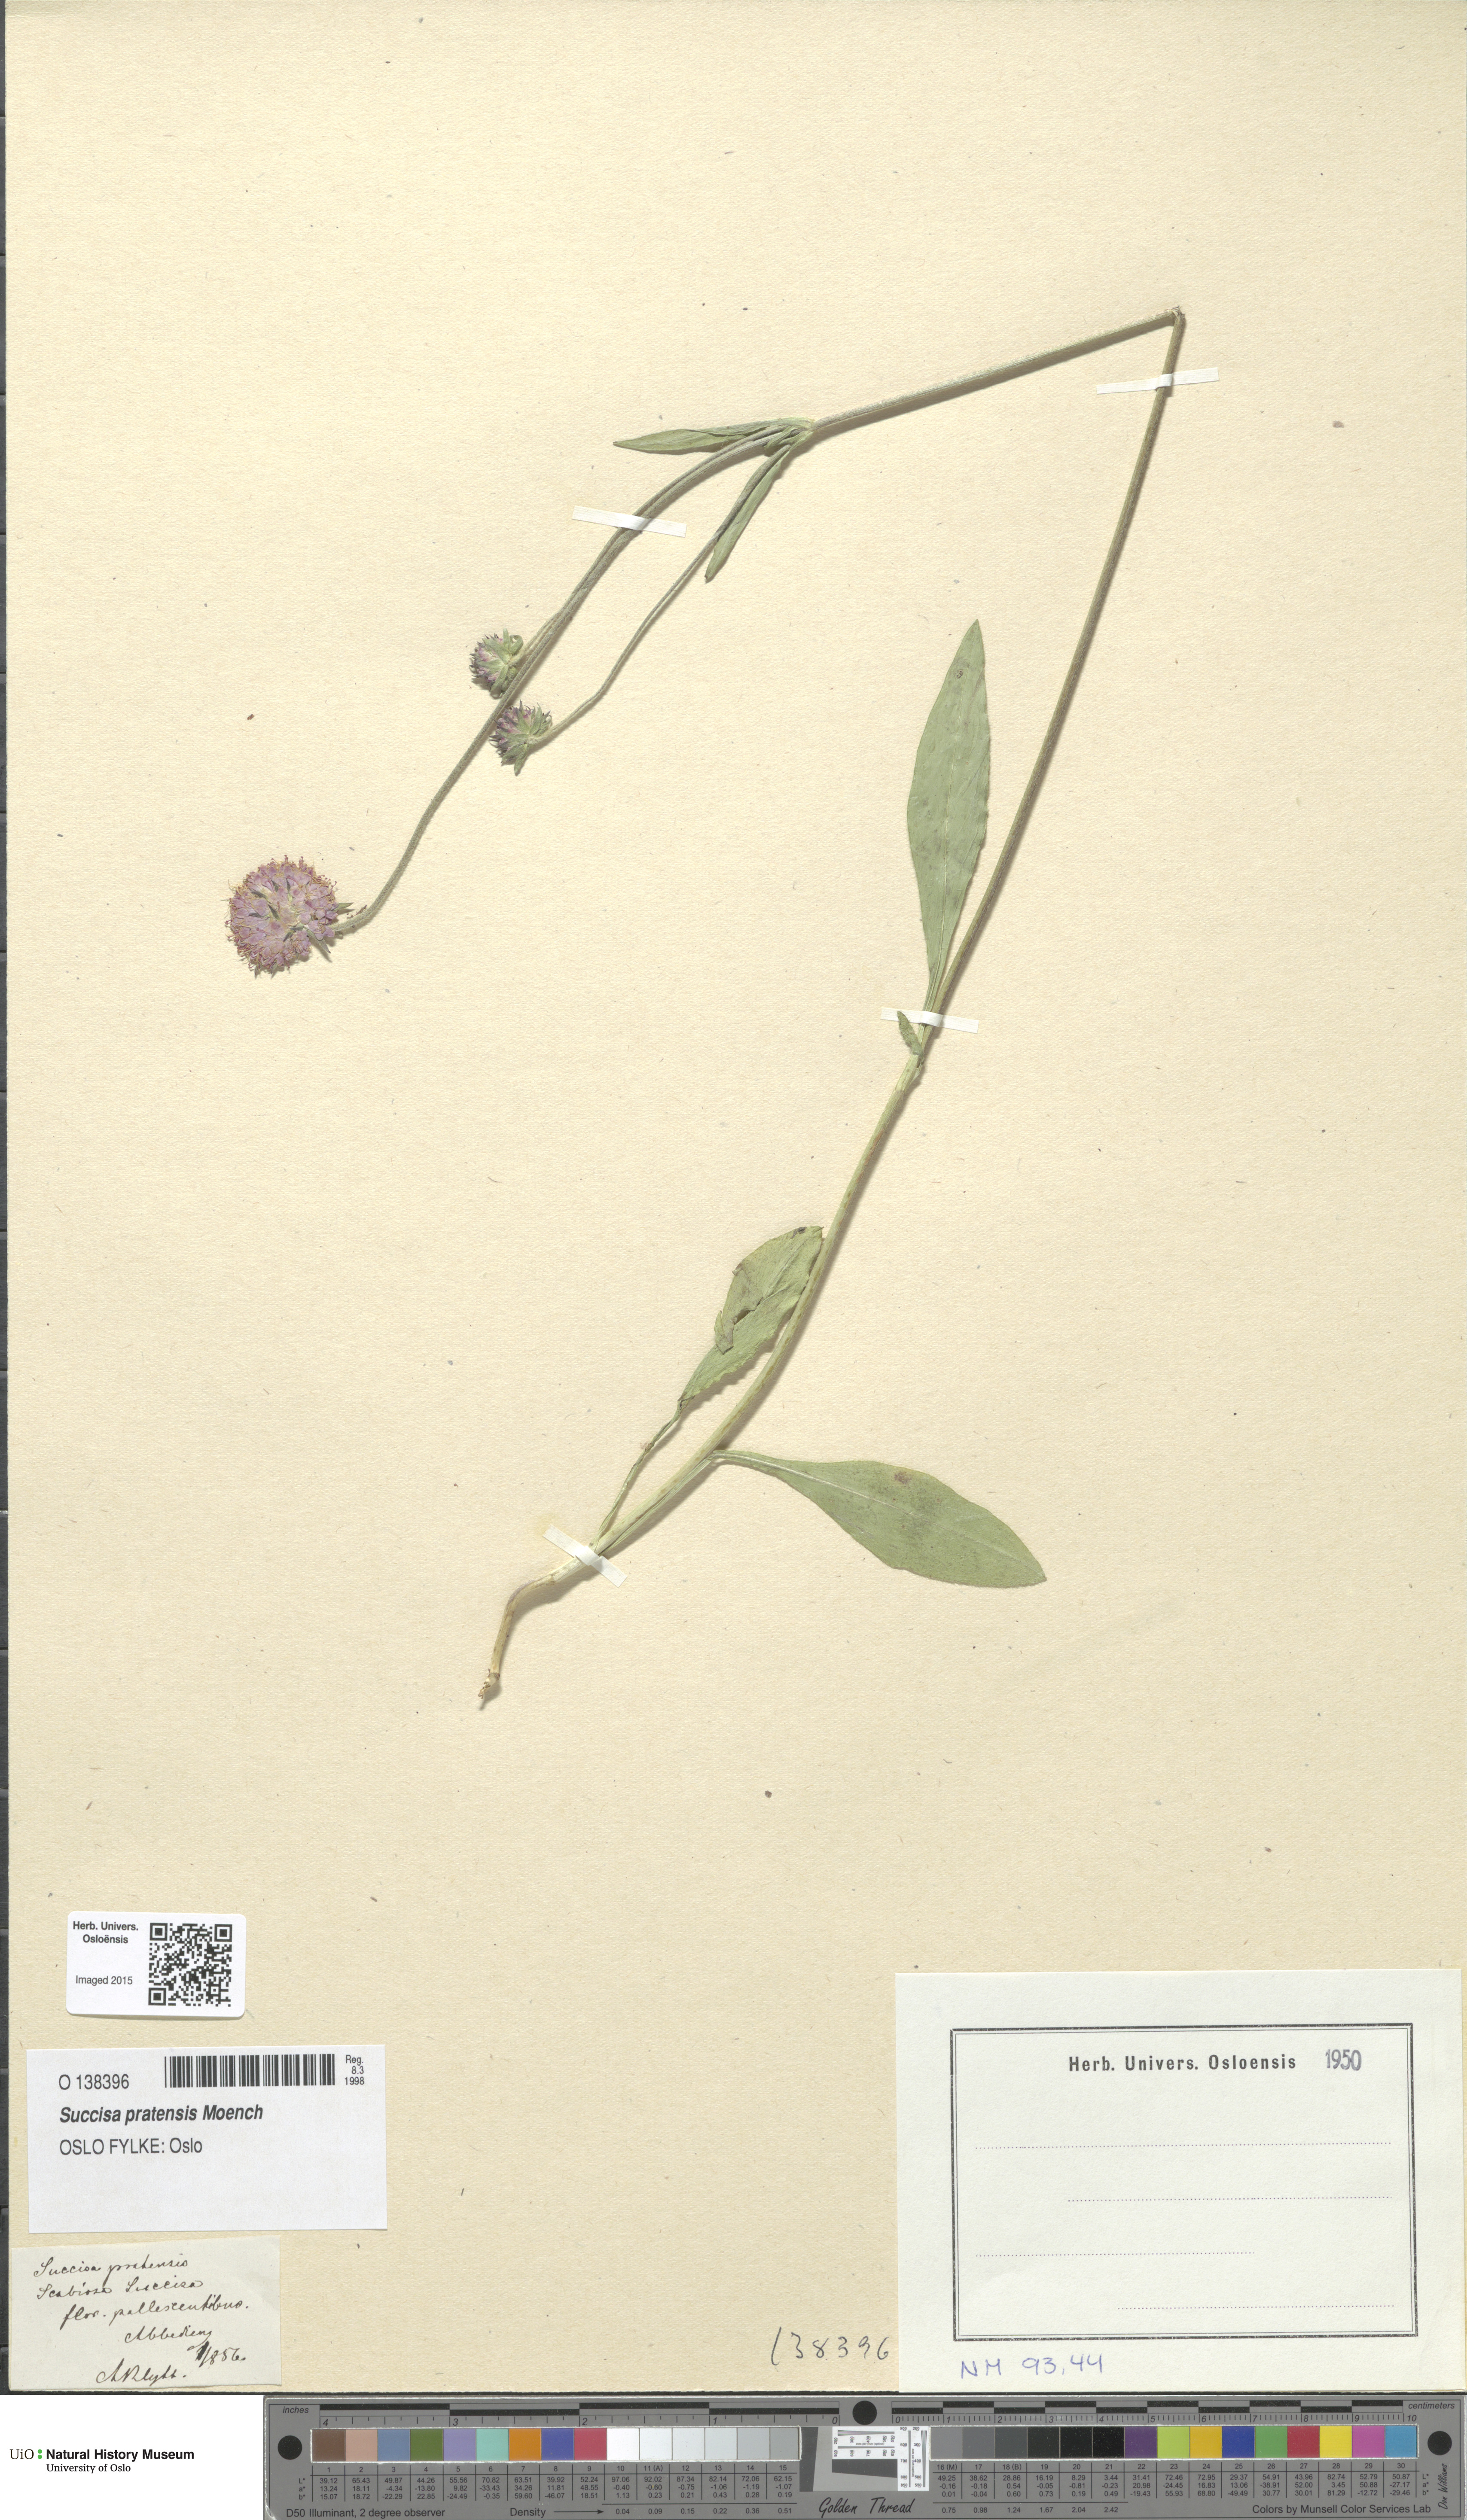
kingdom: Plantae
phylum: Tracheophyta
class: Magnoliopsida
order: Dipsacales
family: Caprifoliaceae
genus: Succisa
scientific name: Succisa pratensis
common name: Devil's-bit
